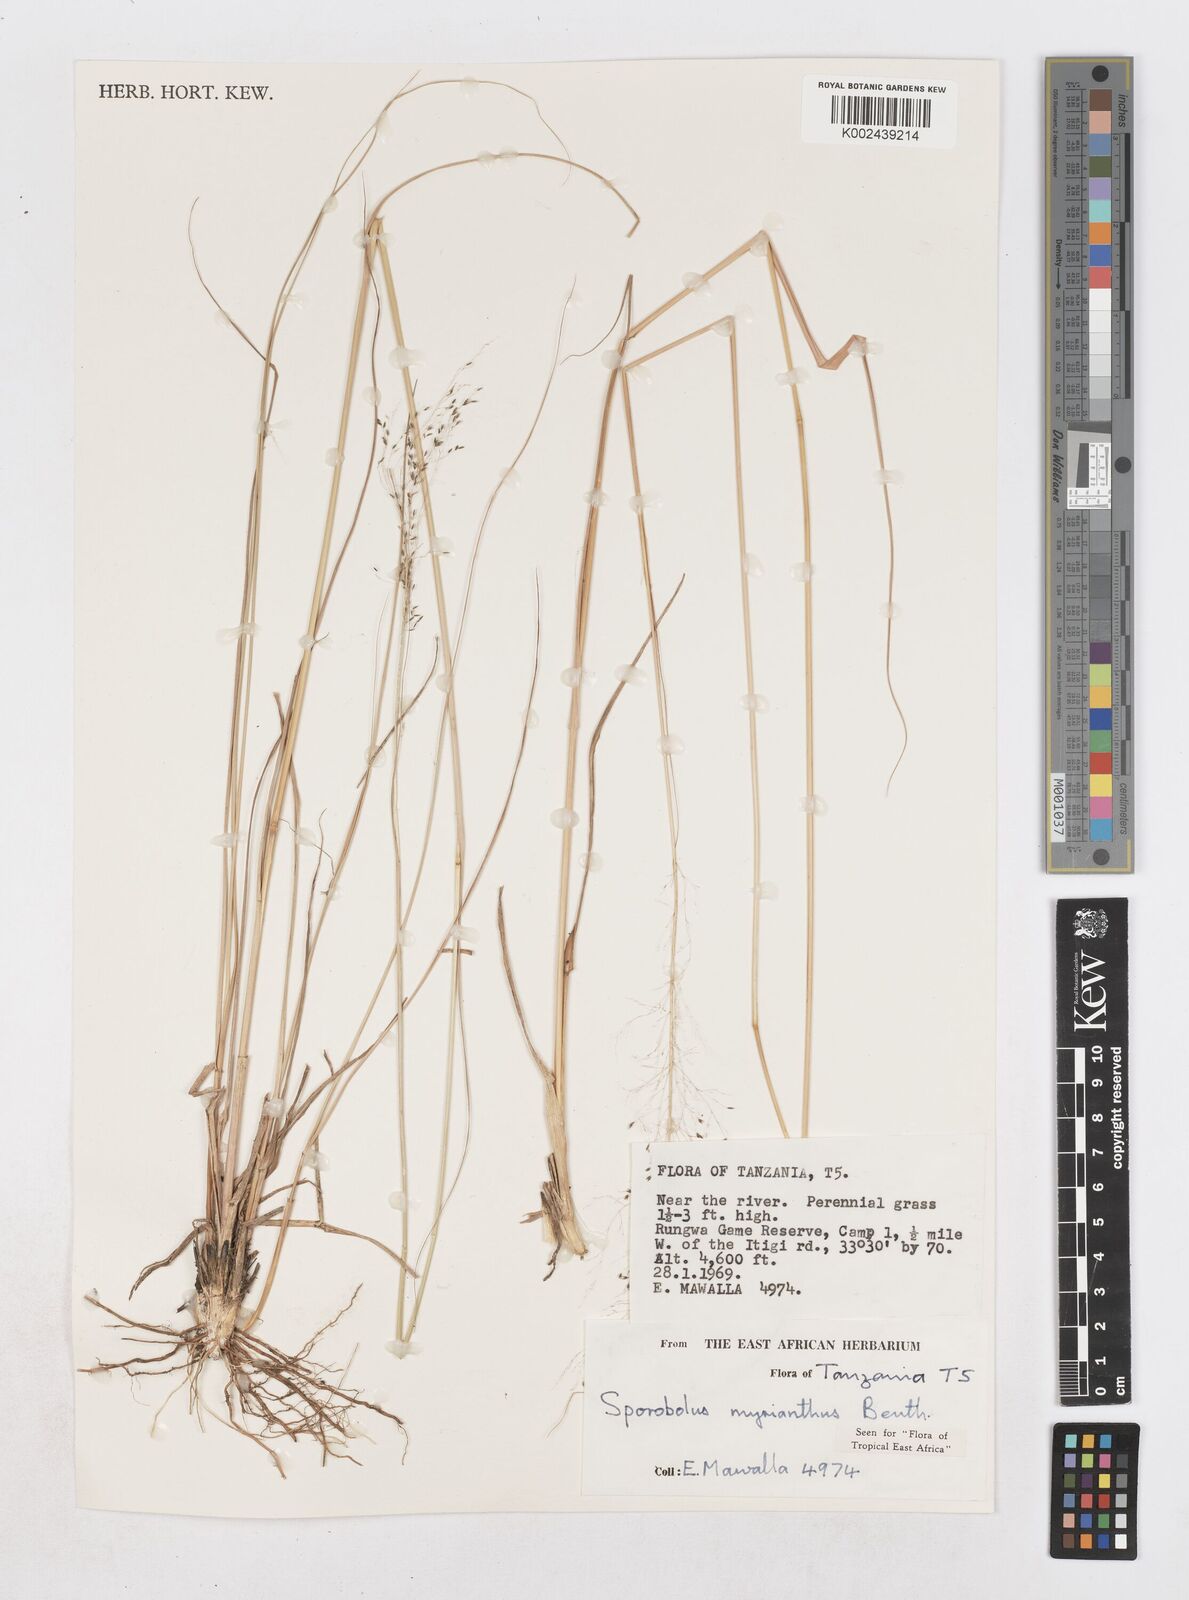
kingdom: Plantae
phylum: Tracheophyta
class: Liliopsida
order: Poales
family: Poaceae
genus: Sporobolus
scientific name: Sporobolus myrianthus
